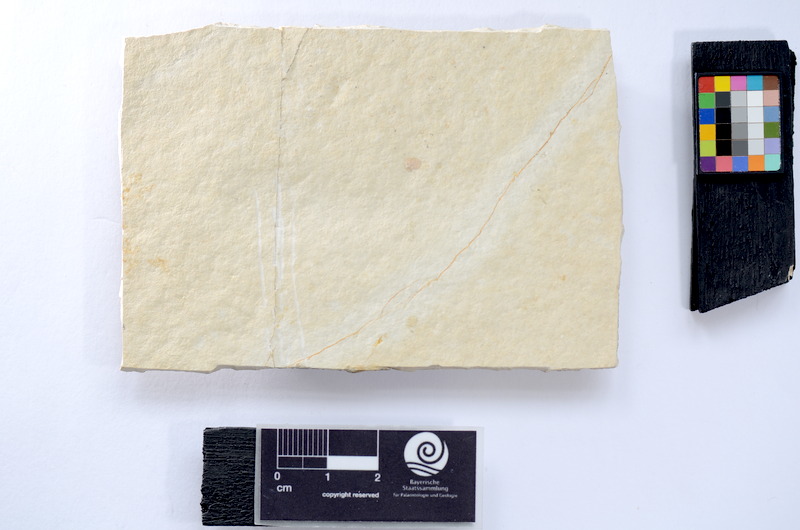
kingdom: Animalia
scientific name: Animalia
